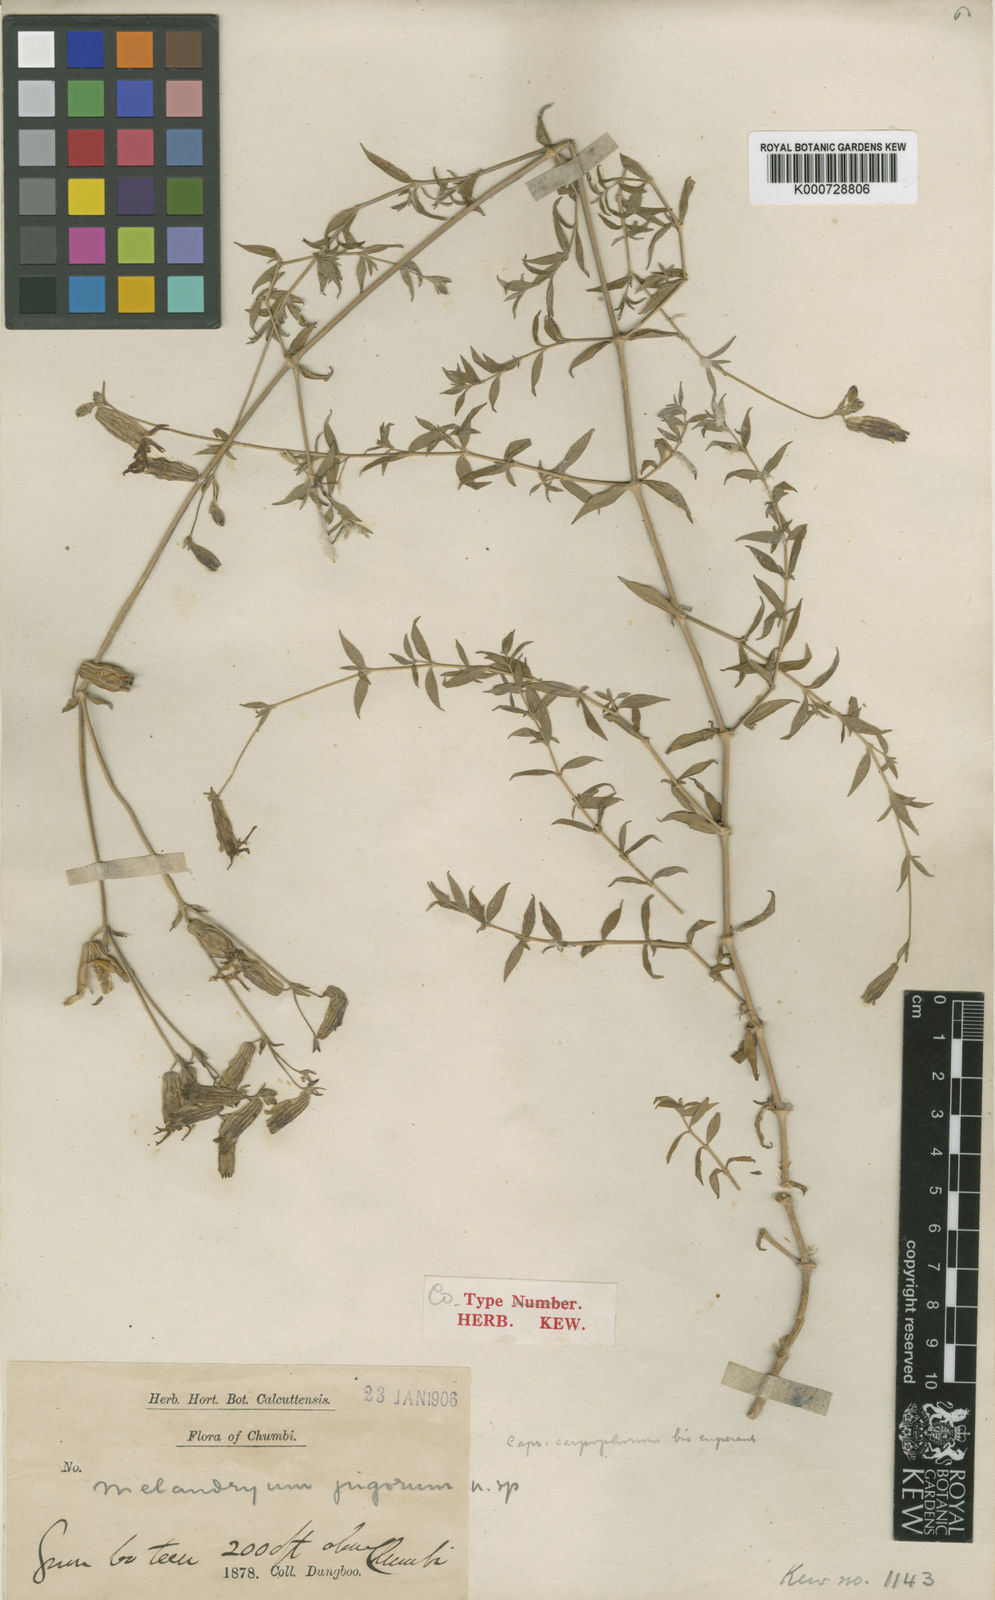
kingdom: Plantae
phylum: Tracheophyta
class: Magnoliopsida
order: Caryophyllales
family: Caryophyllaceae
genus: Silene
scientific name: Silene
